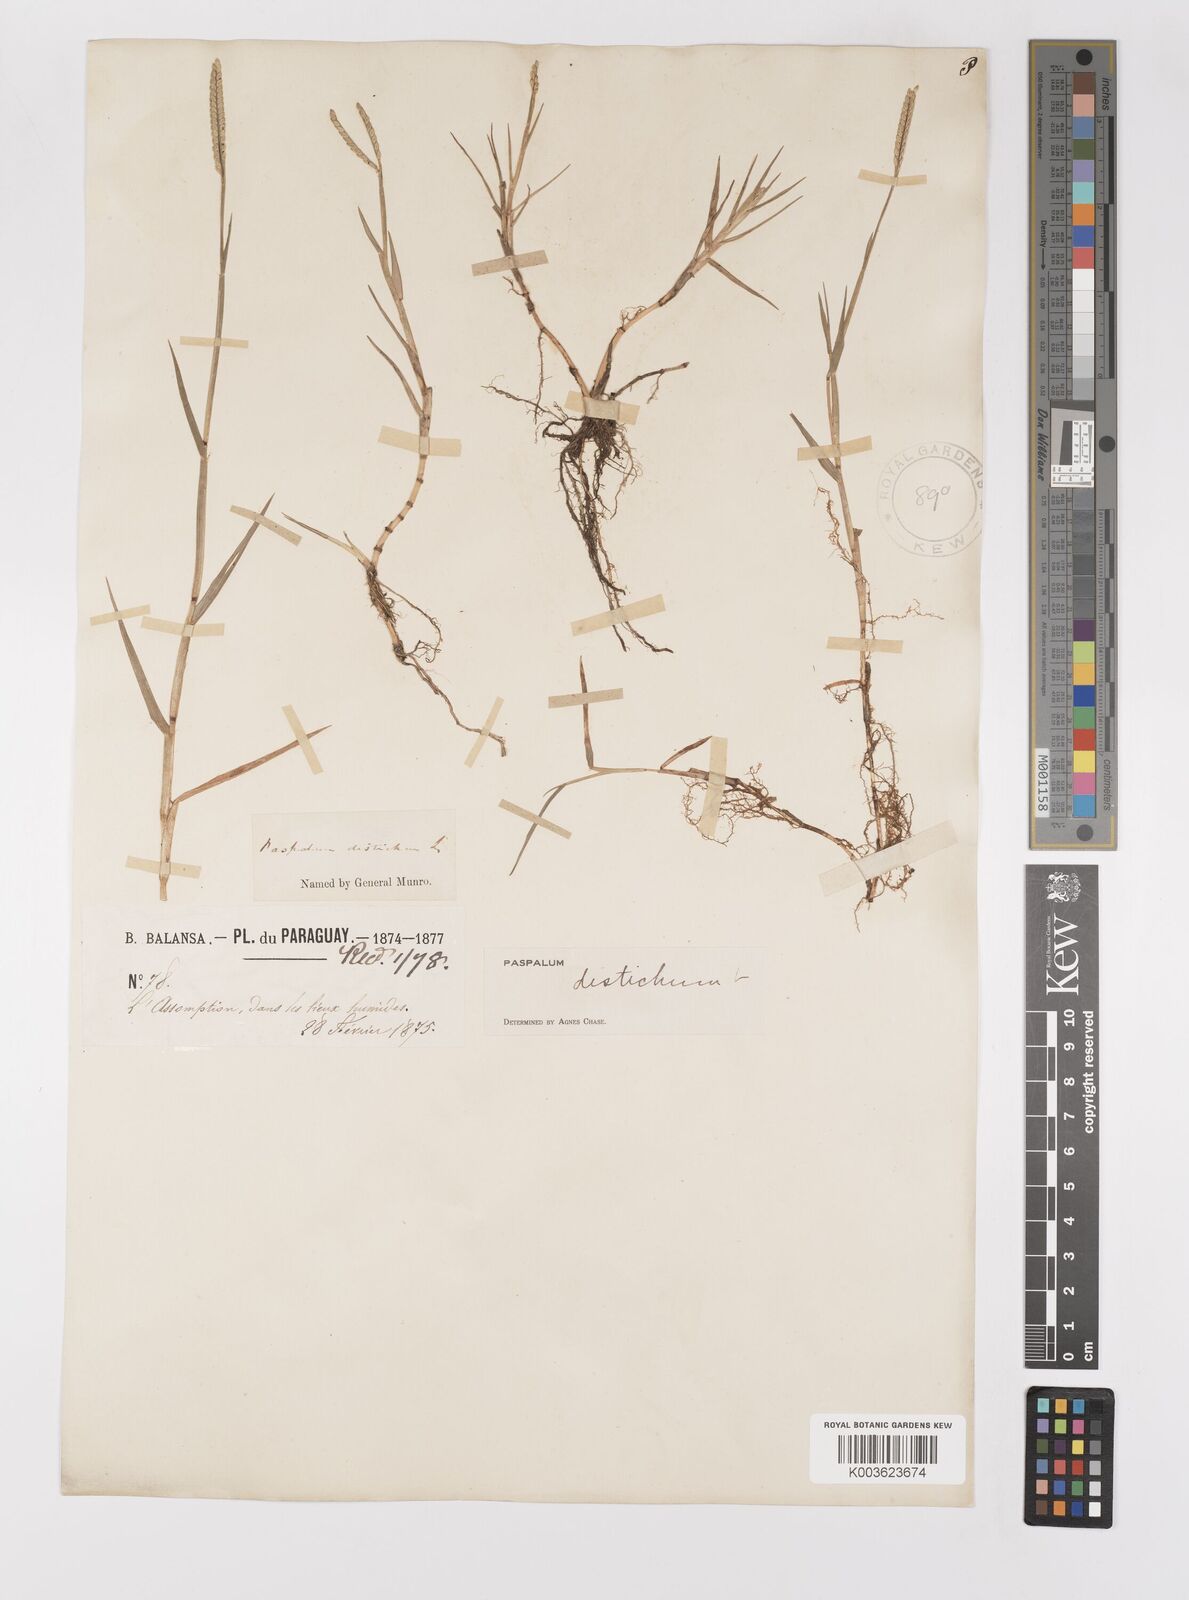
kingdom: Plantae
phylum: Tracheophyta
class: Liliopsida
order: Poales
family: Poaceae
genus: Paspalum
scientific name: Paspalum distichum
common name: Knotgrass
